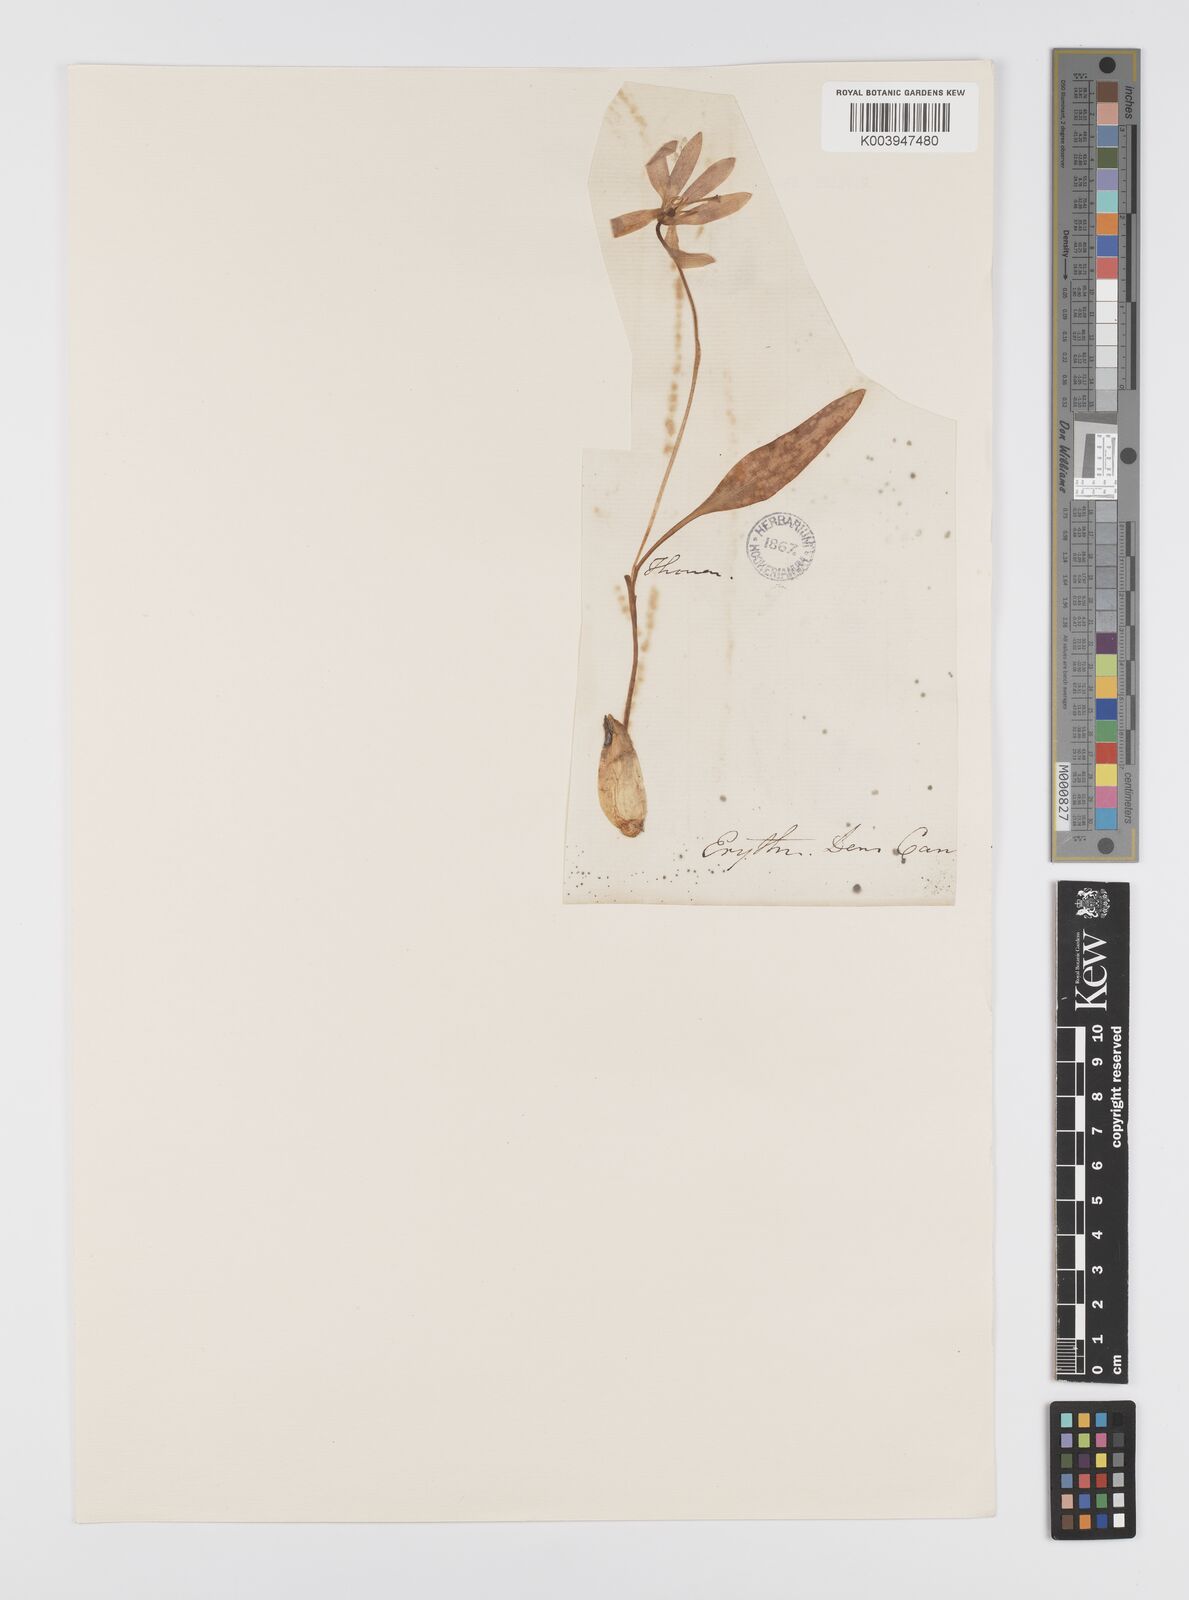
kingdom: Plantae
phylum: Tracheophyta
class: Liliopsida
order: Liliales
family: Liliaceae
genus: Erythronium
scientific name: Erythronium dens-canis
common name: Dog's-tooth-violet
